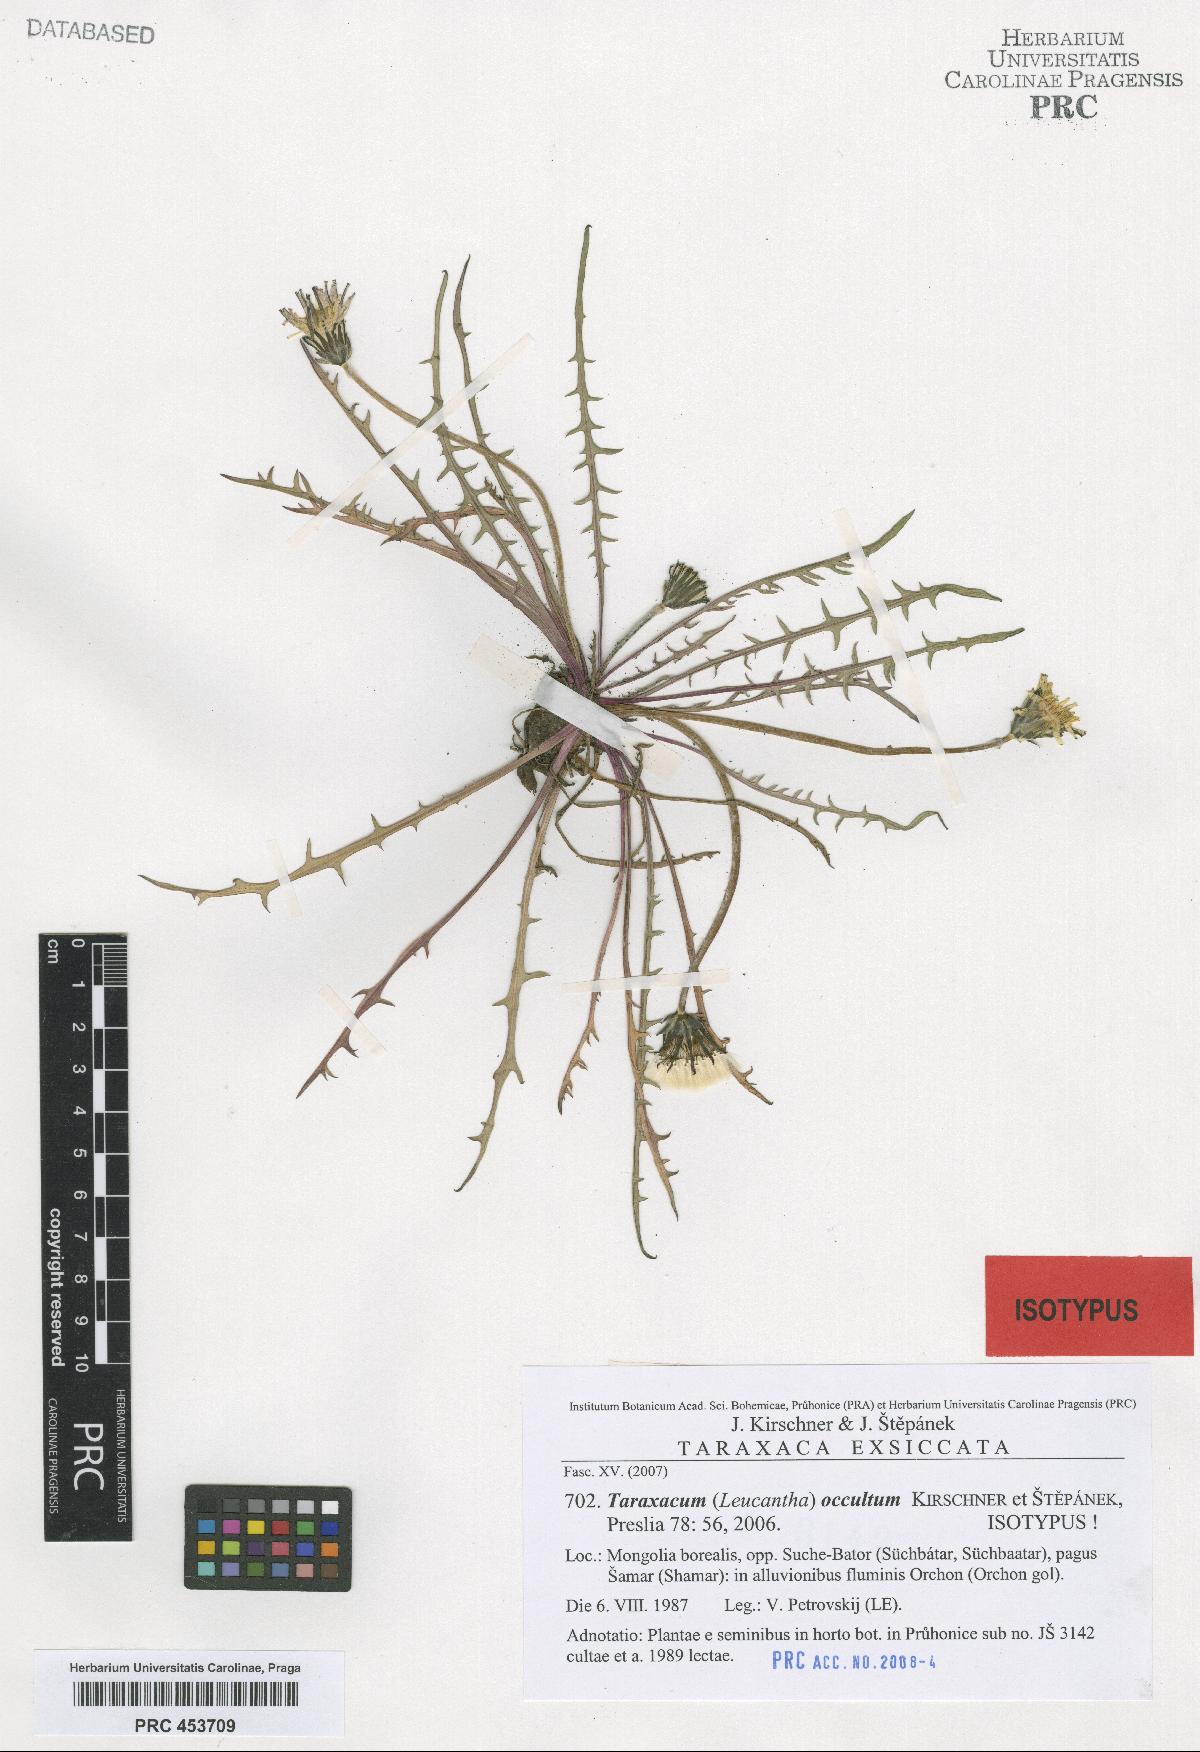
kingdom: Plantae
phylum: Tracheophyta
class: Magnoliopsida
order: Asterales
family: Asteraceae
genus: Taraxacum
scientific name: Taraxacum occultum
